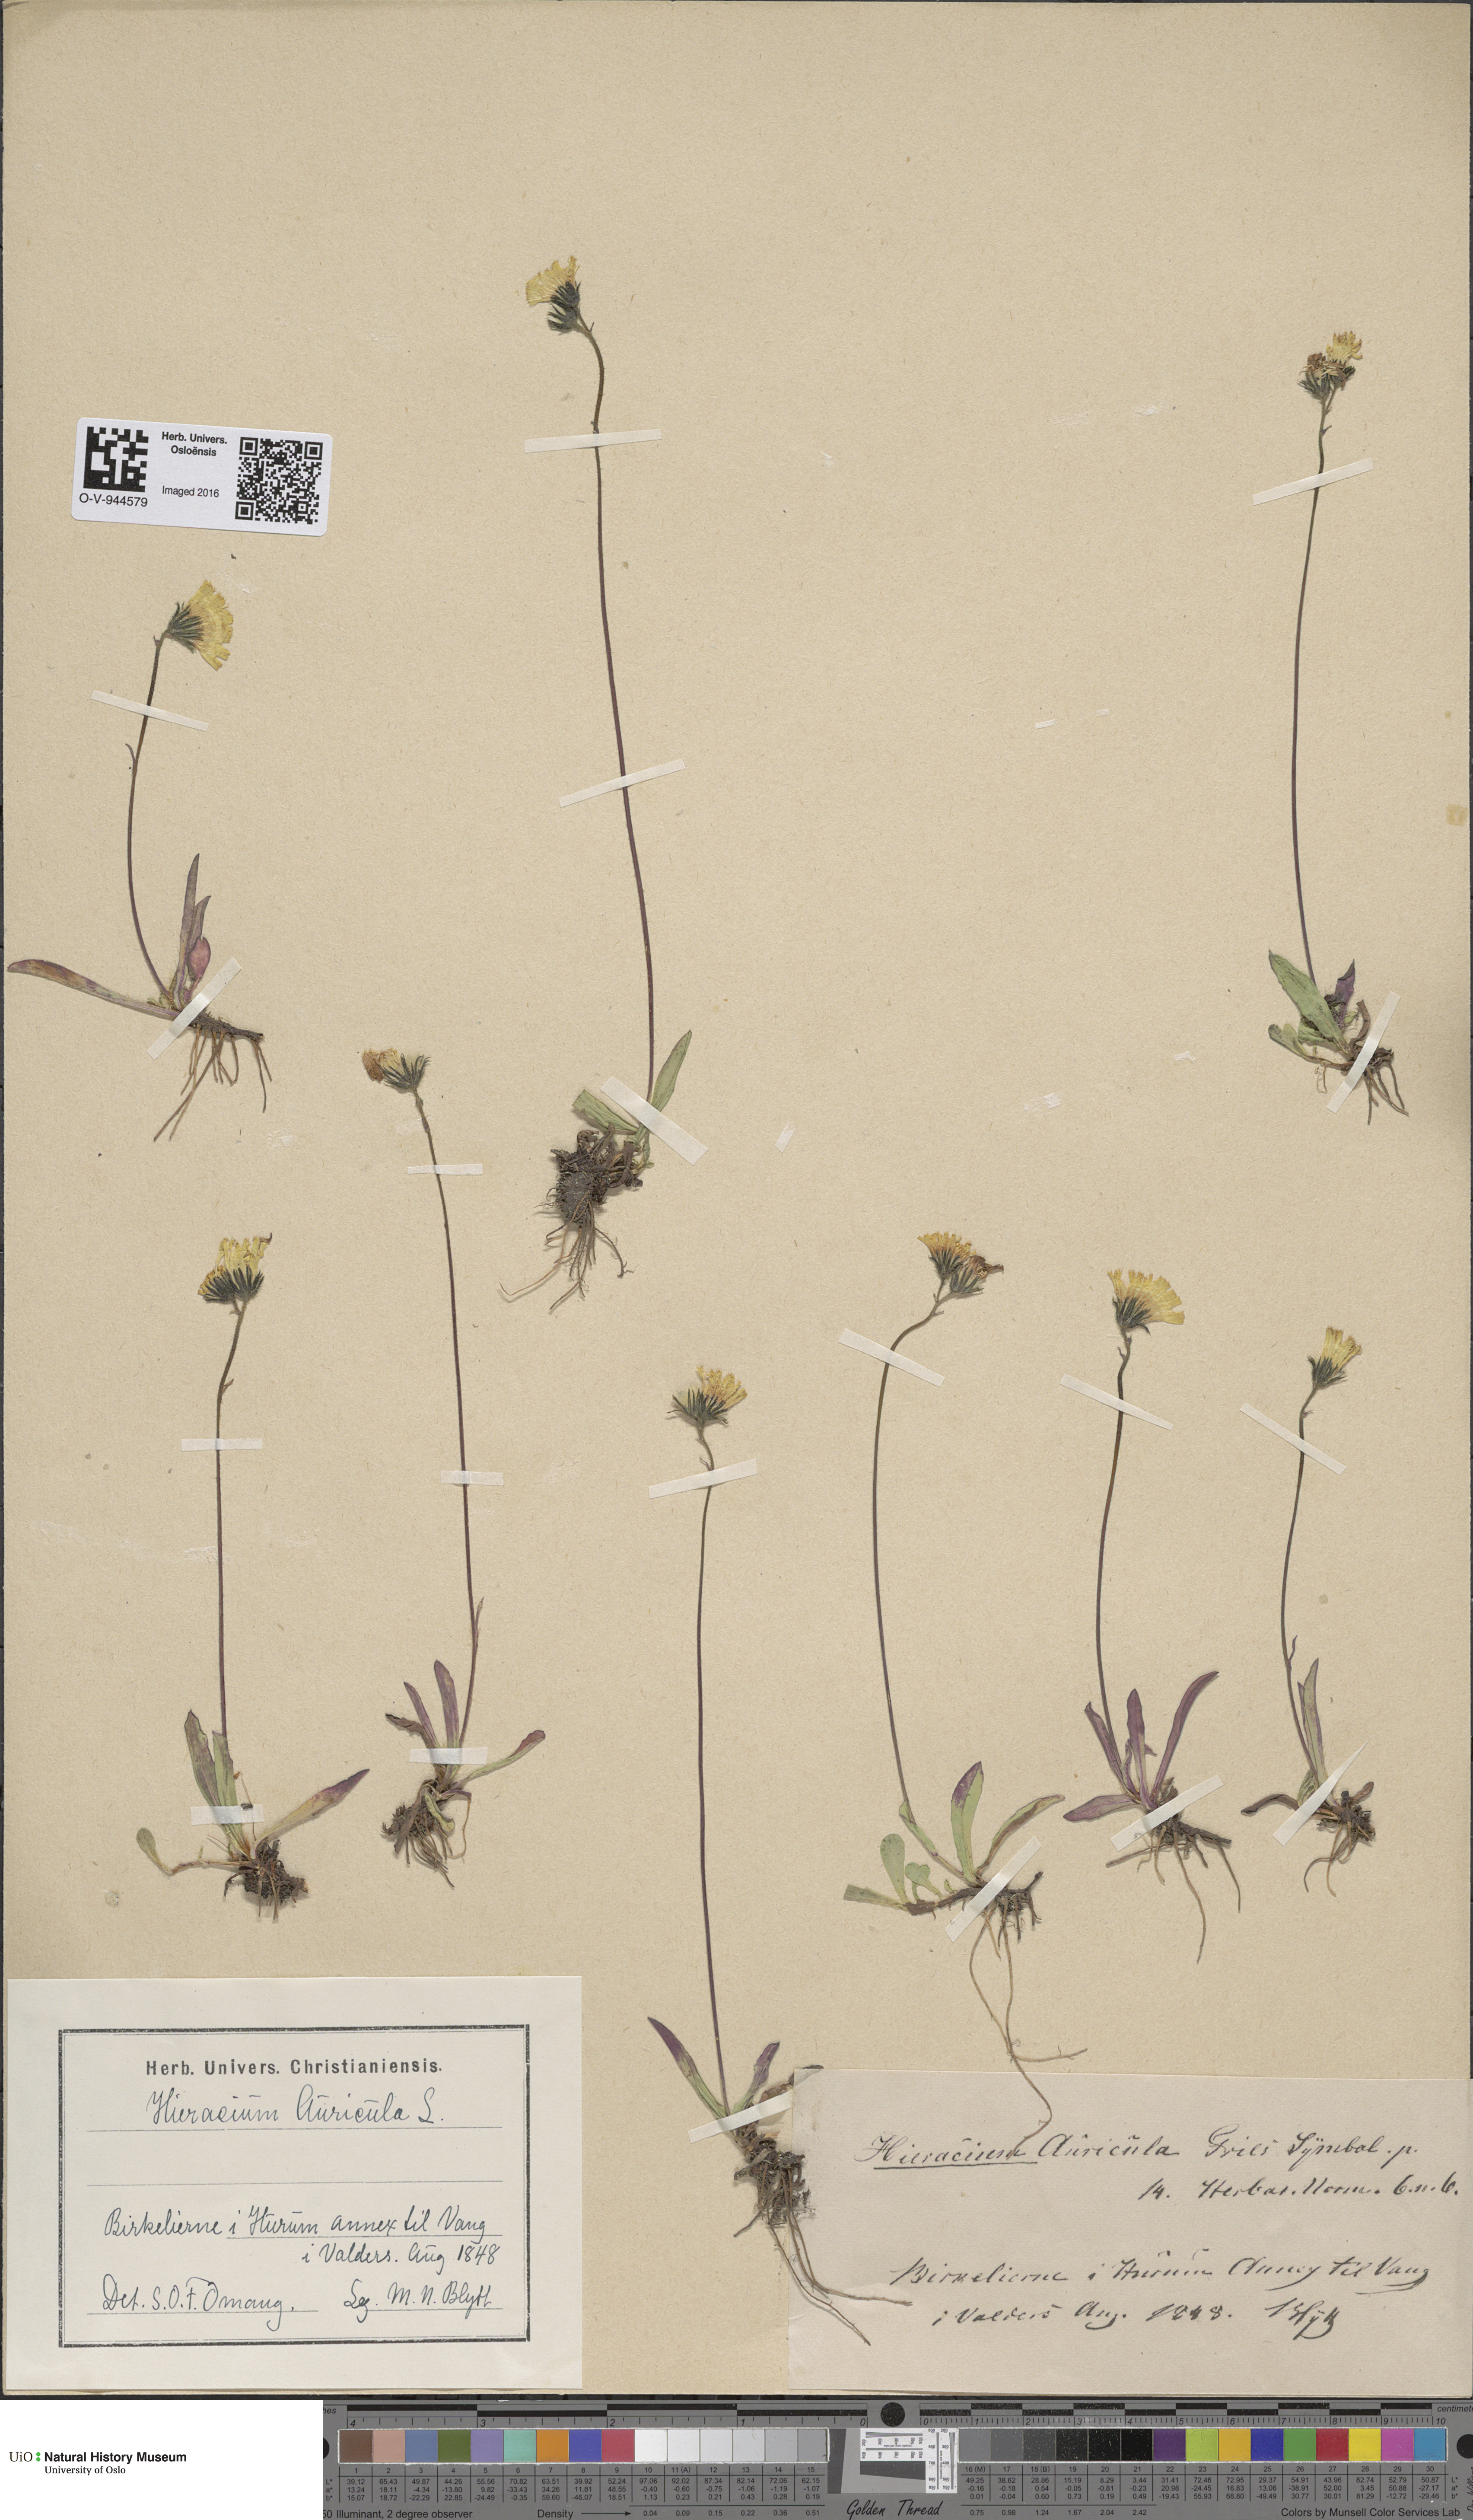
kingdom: Plantae
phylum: Tracheophyta
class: Magnoliopsida
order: Asterales
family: Asteraceae
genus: Pilosella
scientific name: Pilosella lactucella
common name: Glaucous fox-and-cubs
